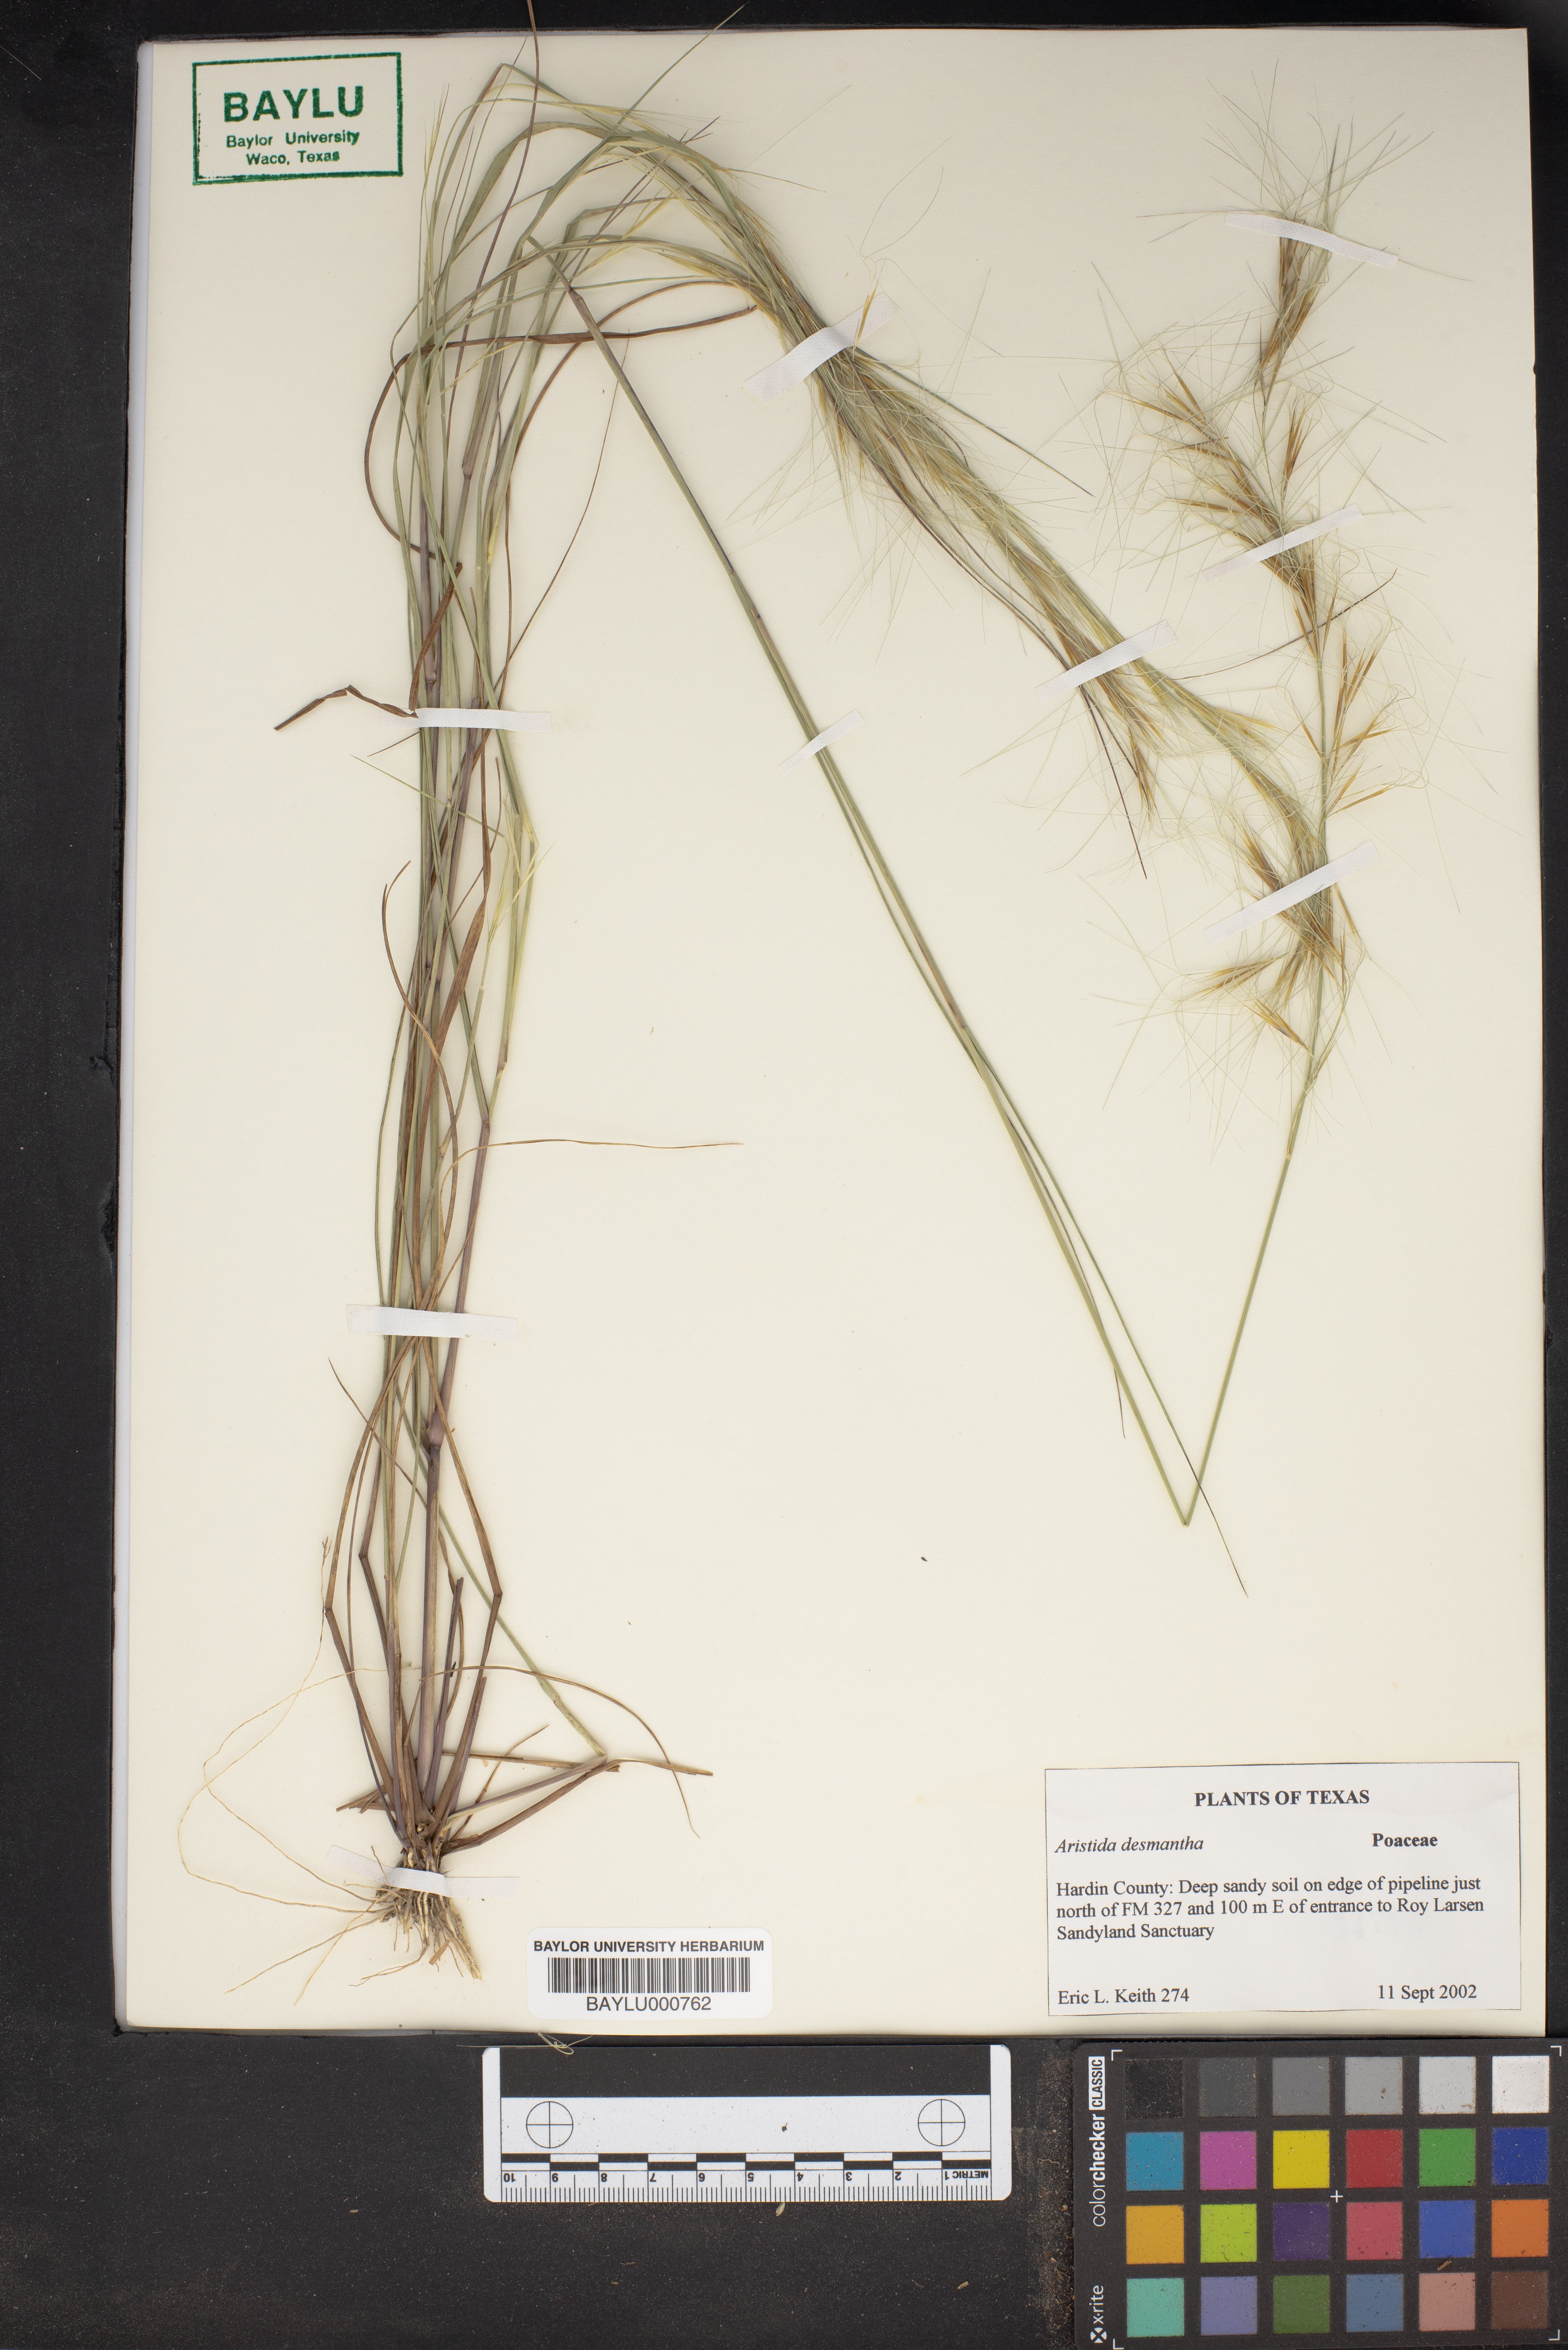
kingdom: Plantae
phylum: Tracheophyta
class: Liliopsida
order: Poales
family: Poaceae
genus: Aristida
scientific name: Aristida desmantha
